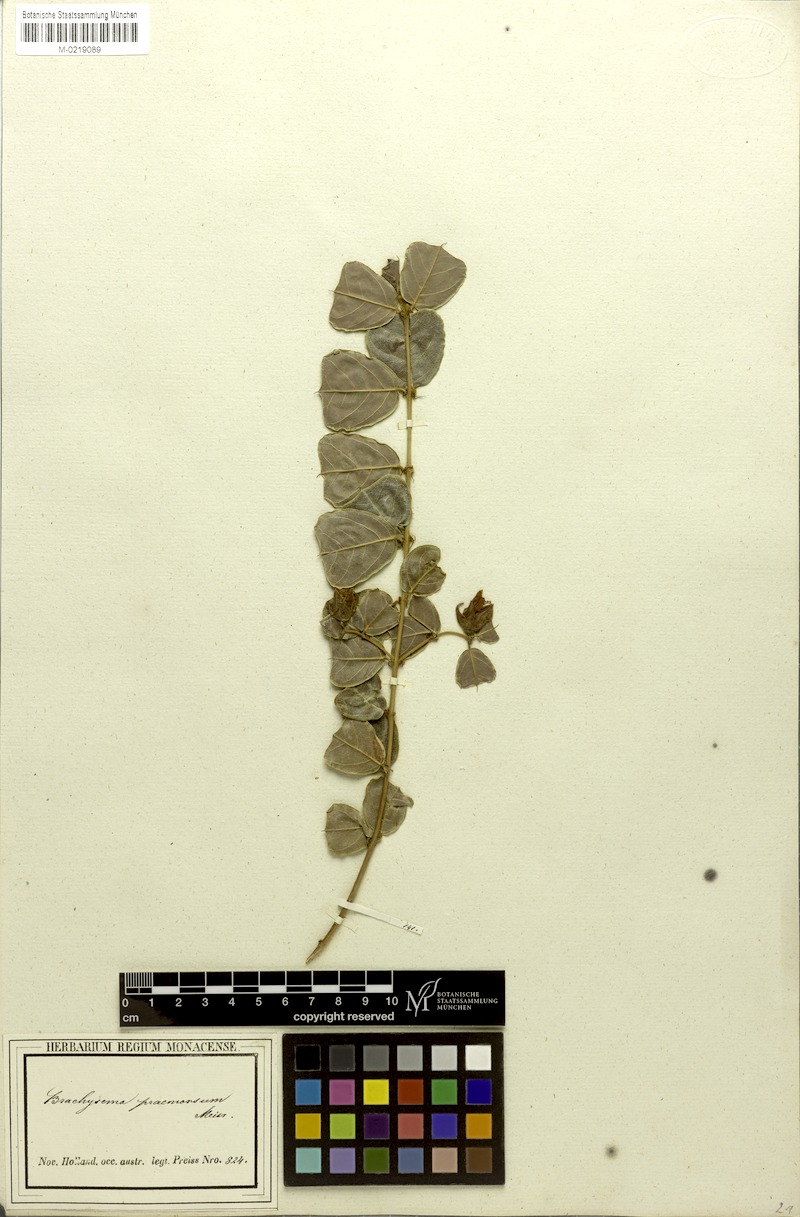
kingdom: Plantae
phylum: Tracheophyta
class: Magnoliopsida
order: Fabales
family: Fabaceae
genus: Gastrolobium
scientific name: Gastrolobium praemorsum
